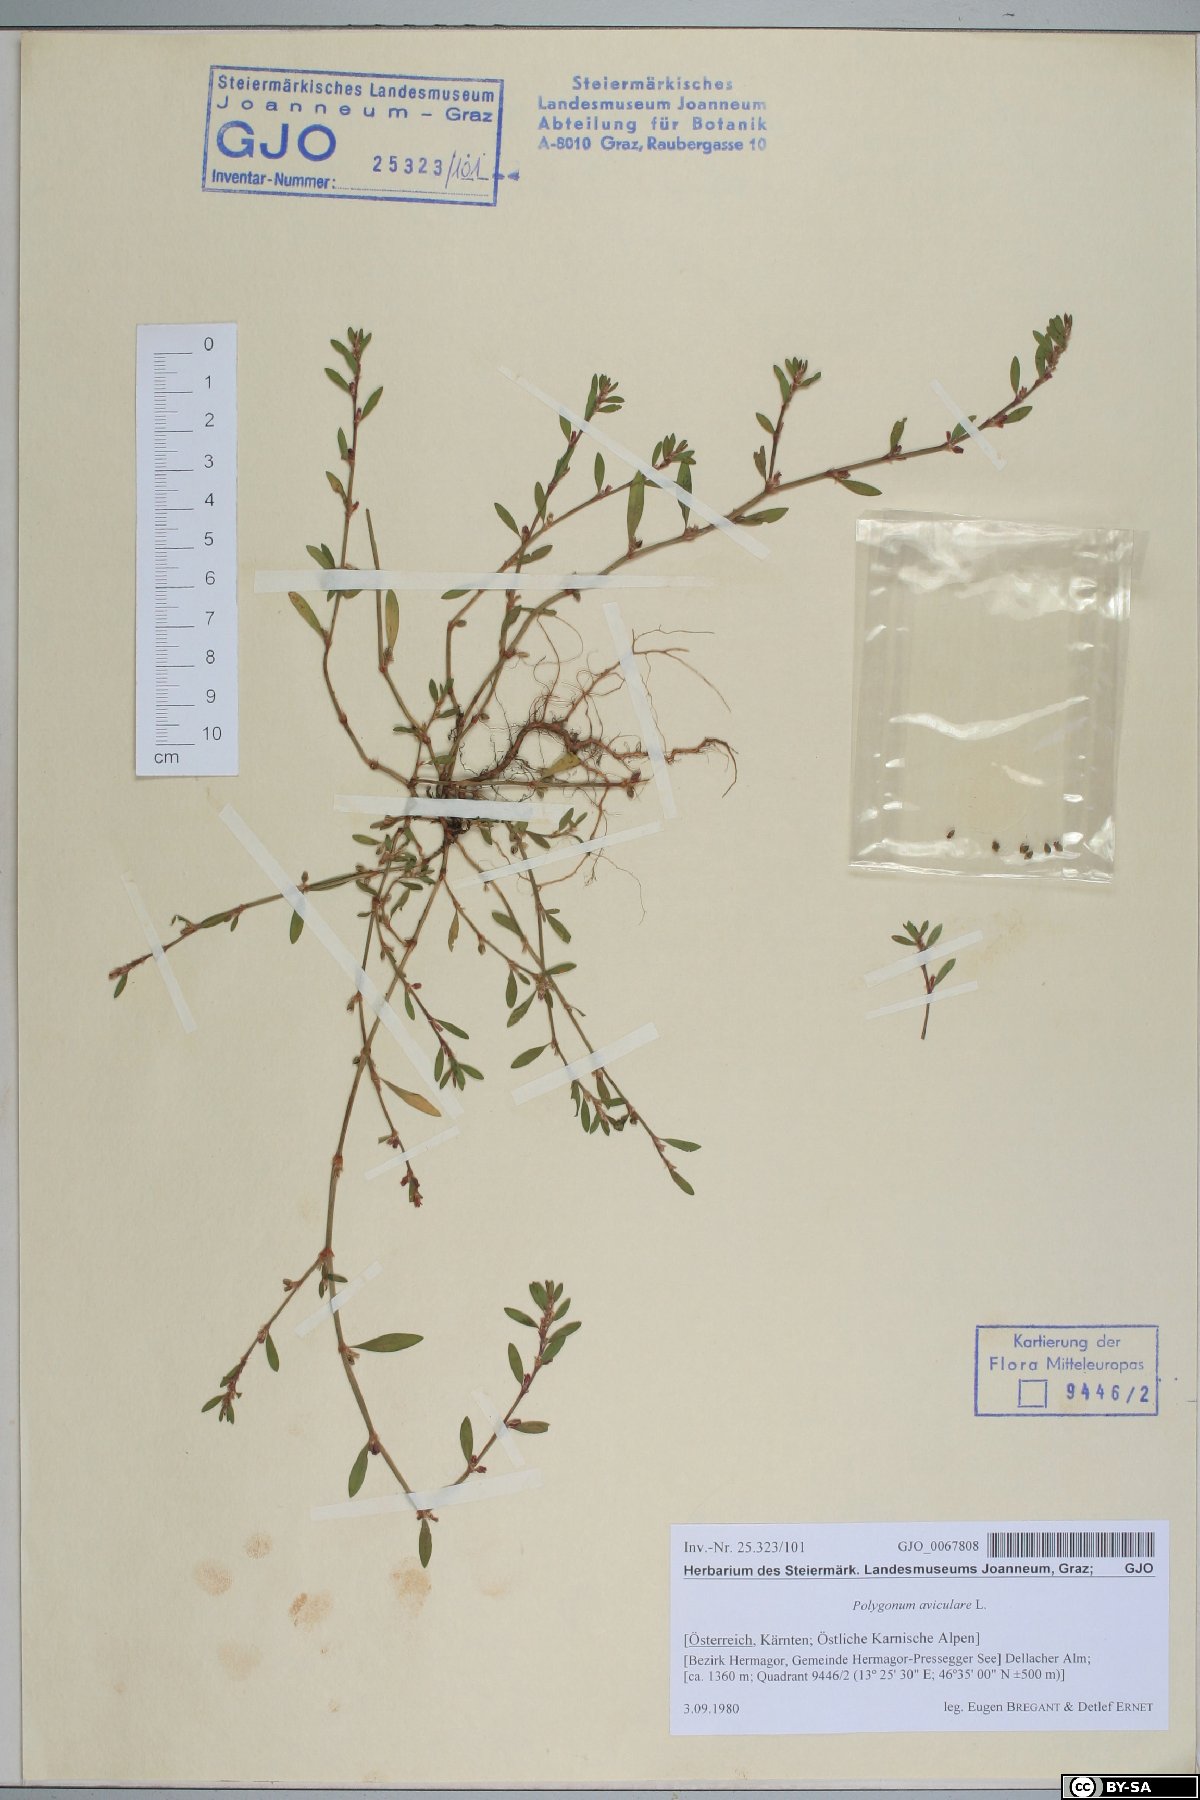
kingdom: Plantae
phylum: Tracheophyta
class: Magnoliopsida
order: Caryophyllales
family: Polygonaceae
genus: Polygonum
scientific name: Polygonum aviculare
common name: Prostrate knotweed
